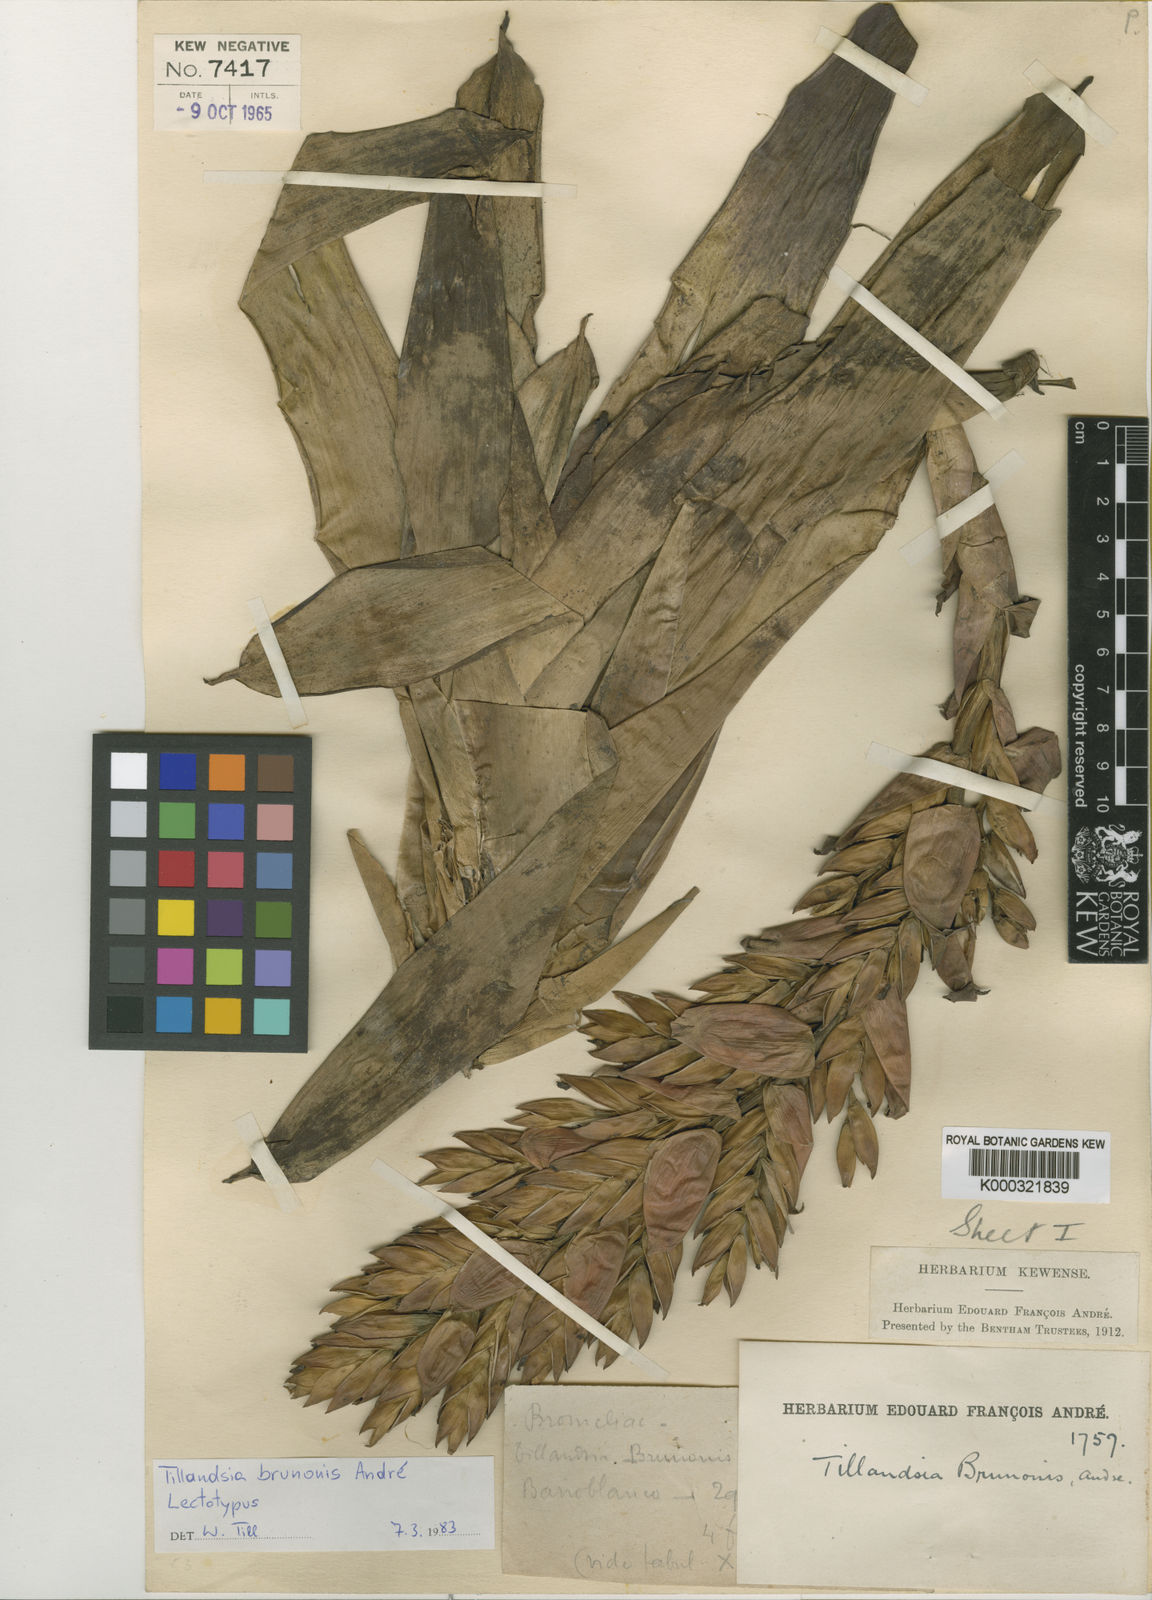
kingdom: Plantae
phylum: Tracheophyta
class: Liliopsida
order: Poales
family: Bromeliaceae
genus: Tillandsia
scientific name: Tillandsia
